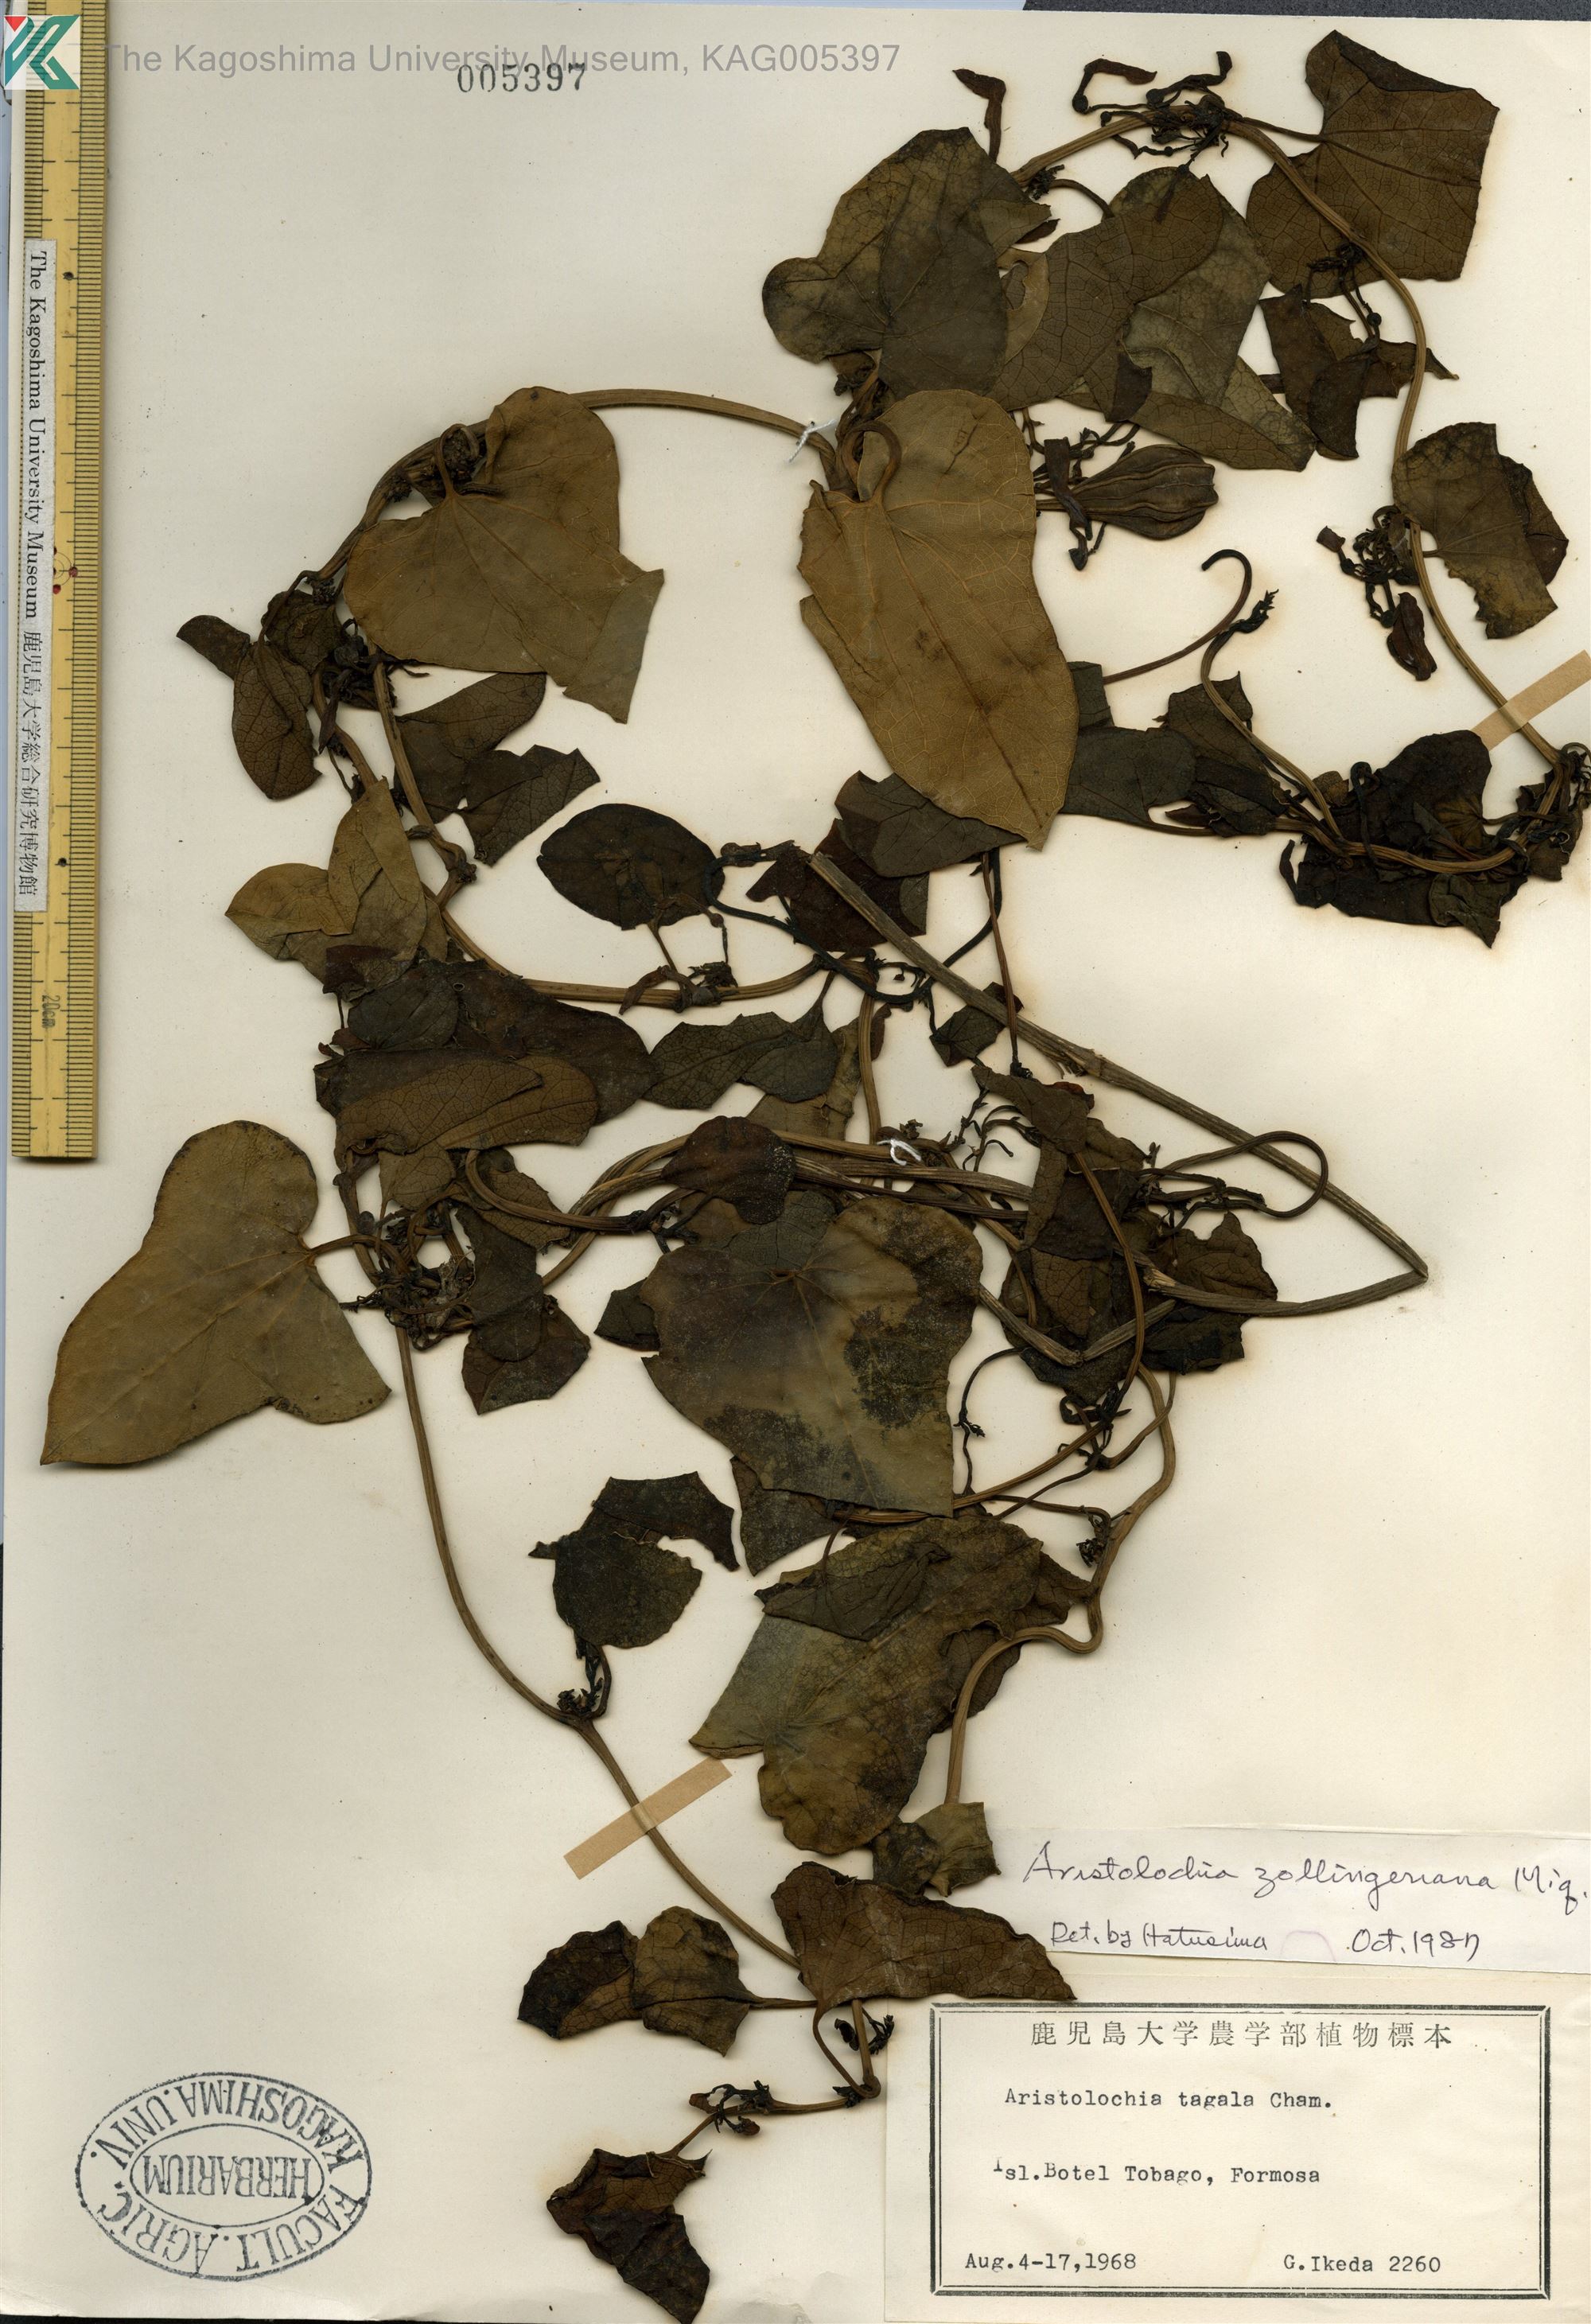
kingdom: Plantae
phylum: Tracheophyta
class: Magnoliopsida
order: Piperales
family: Aristolochiaceae
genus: Aristolochia
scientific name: Aristolochia zollingeriana
